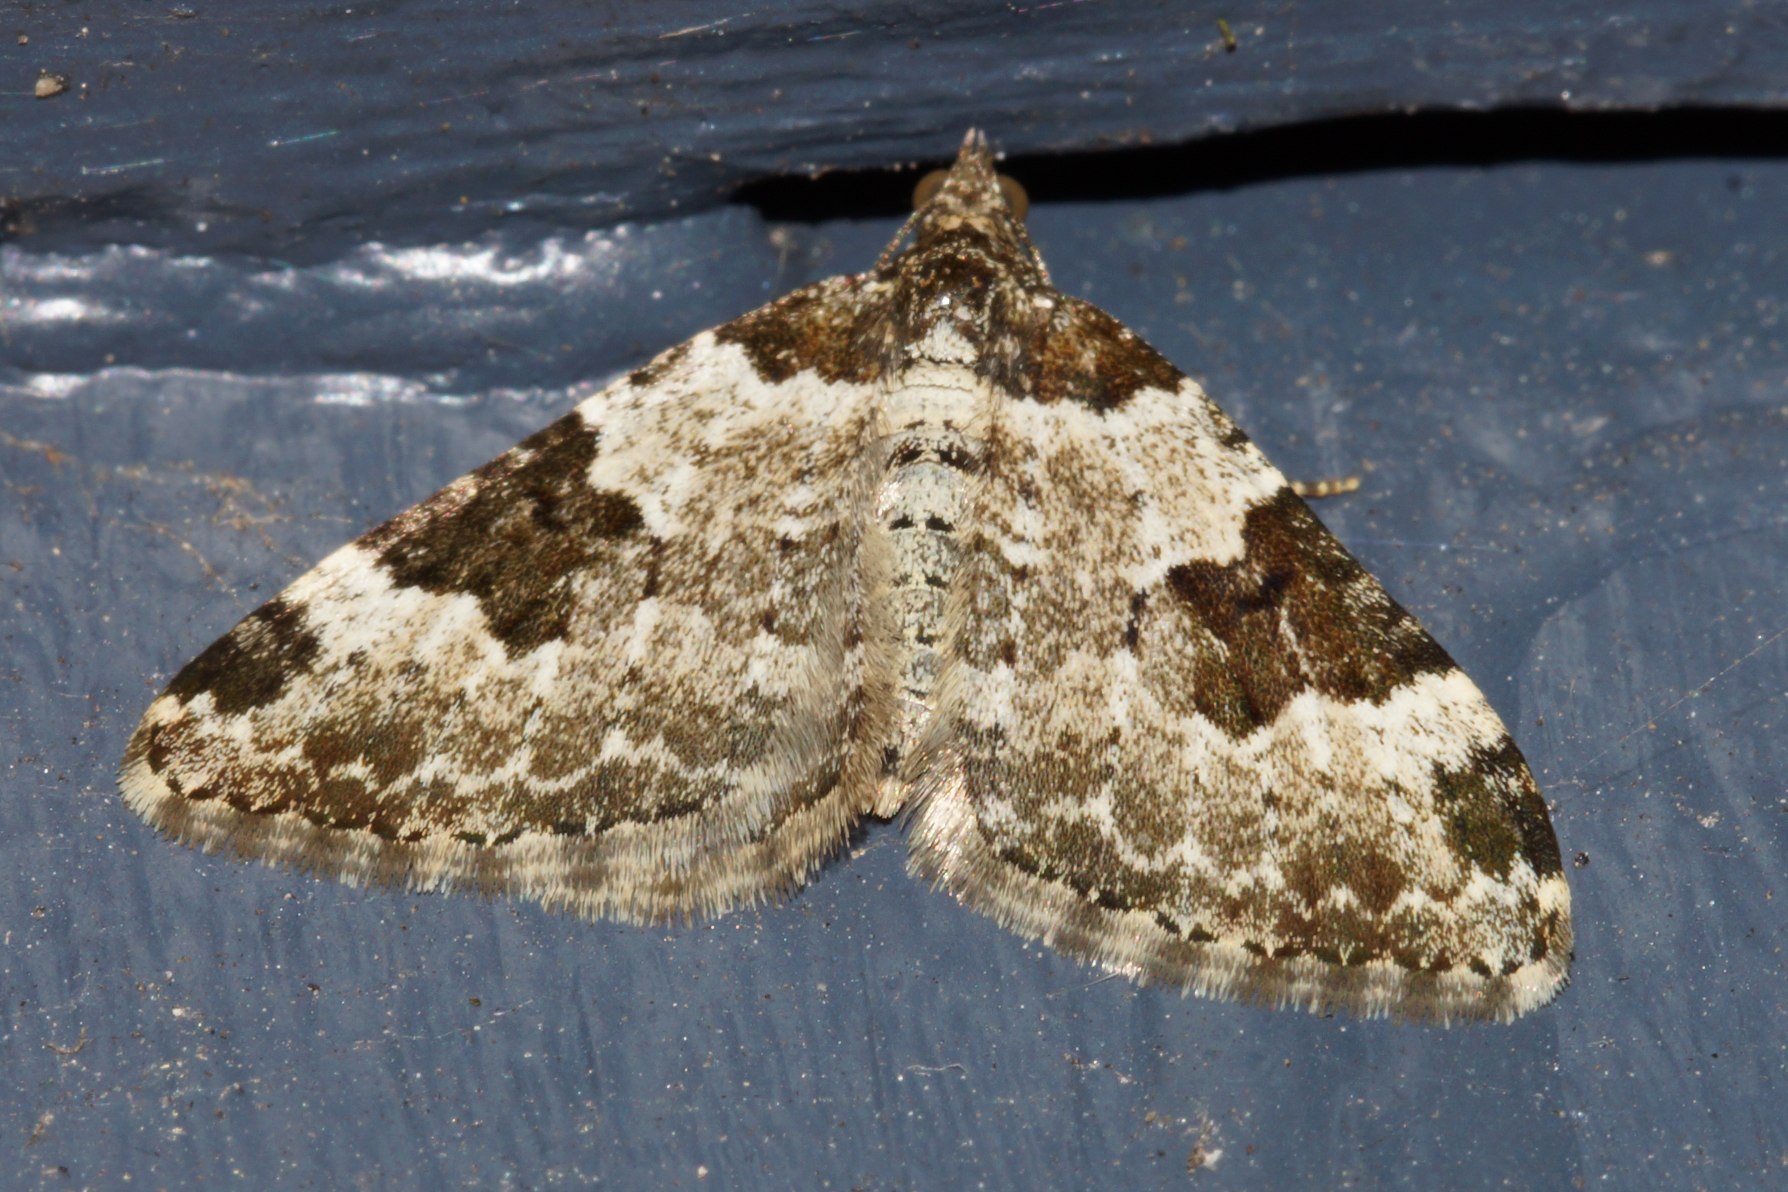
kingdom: Animalia
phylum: Arthropoda
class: Insecta
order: Lepidoptera
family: Geometridae
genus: Xanthorhoe
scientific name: Xanthorhoe fluctuata
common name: Sortbæltet bladmåler
